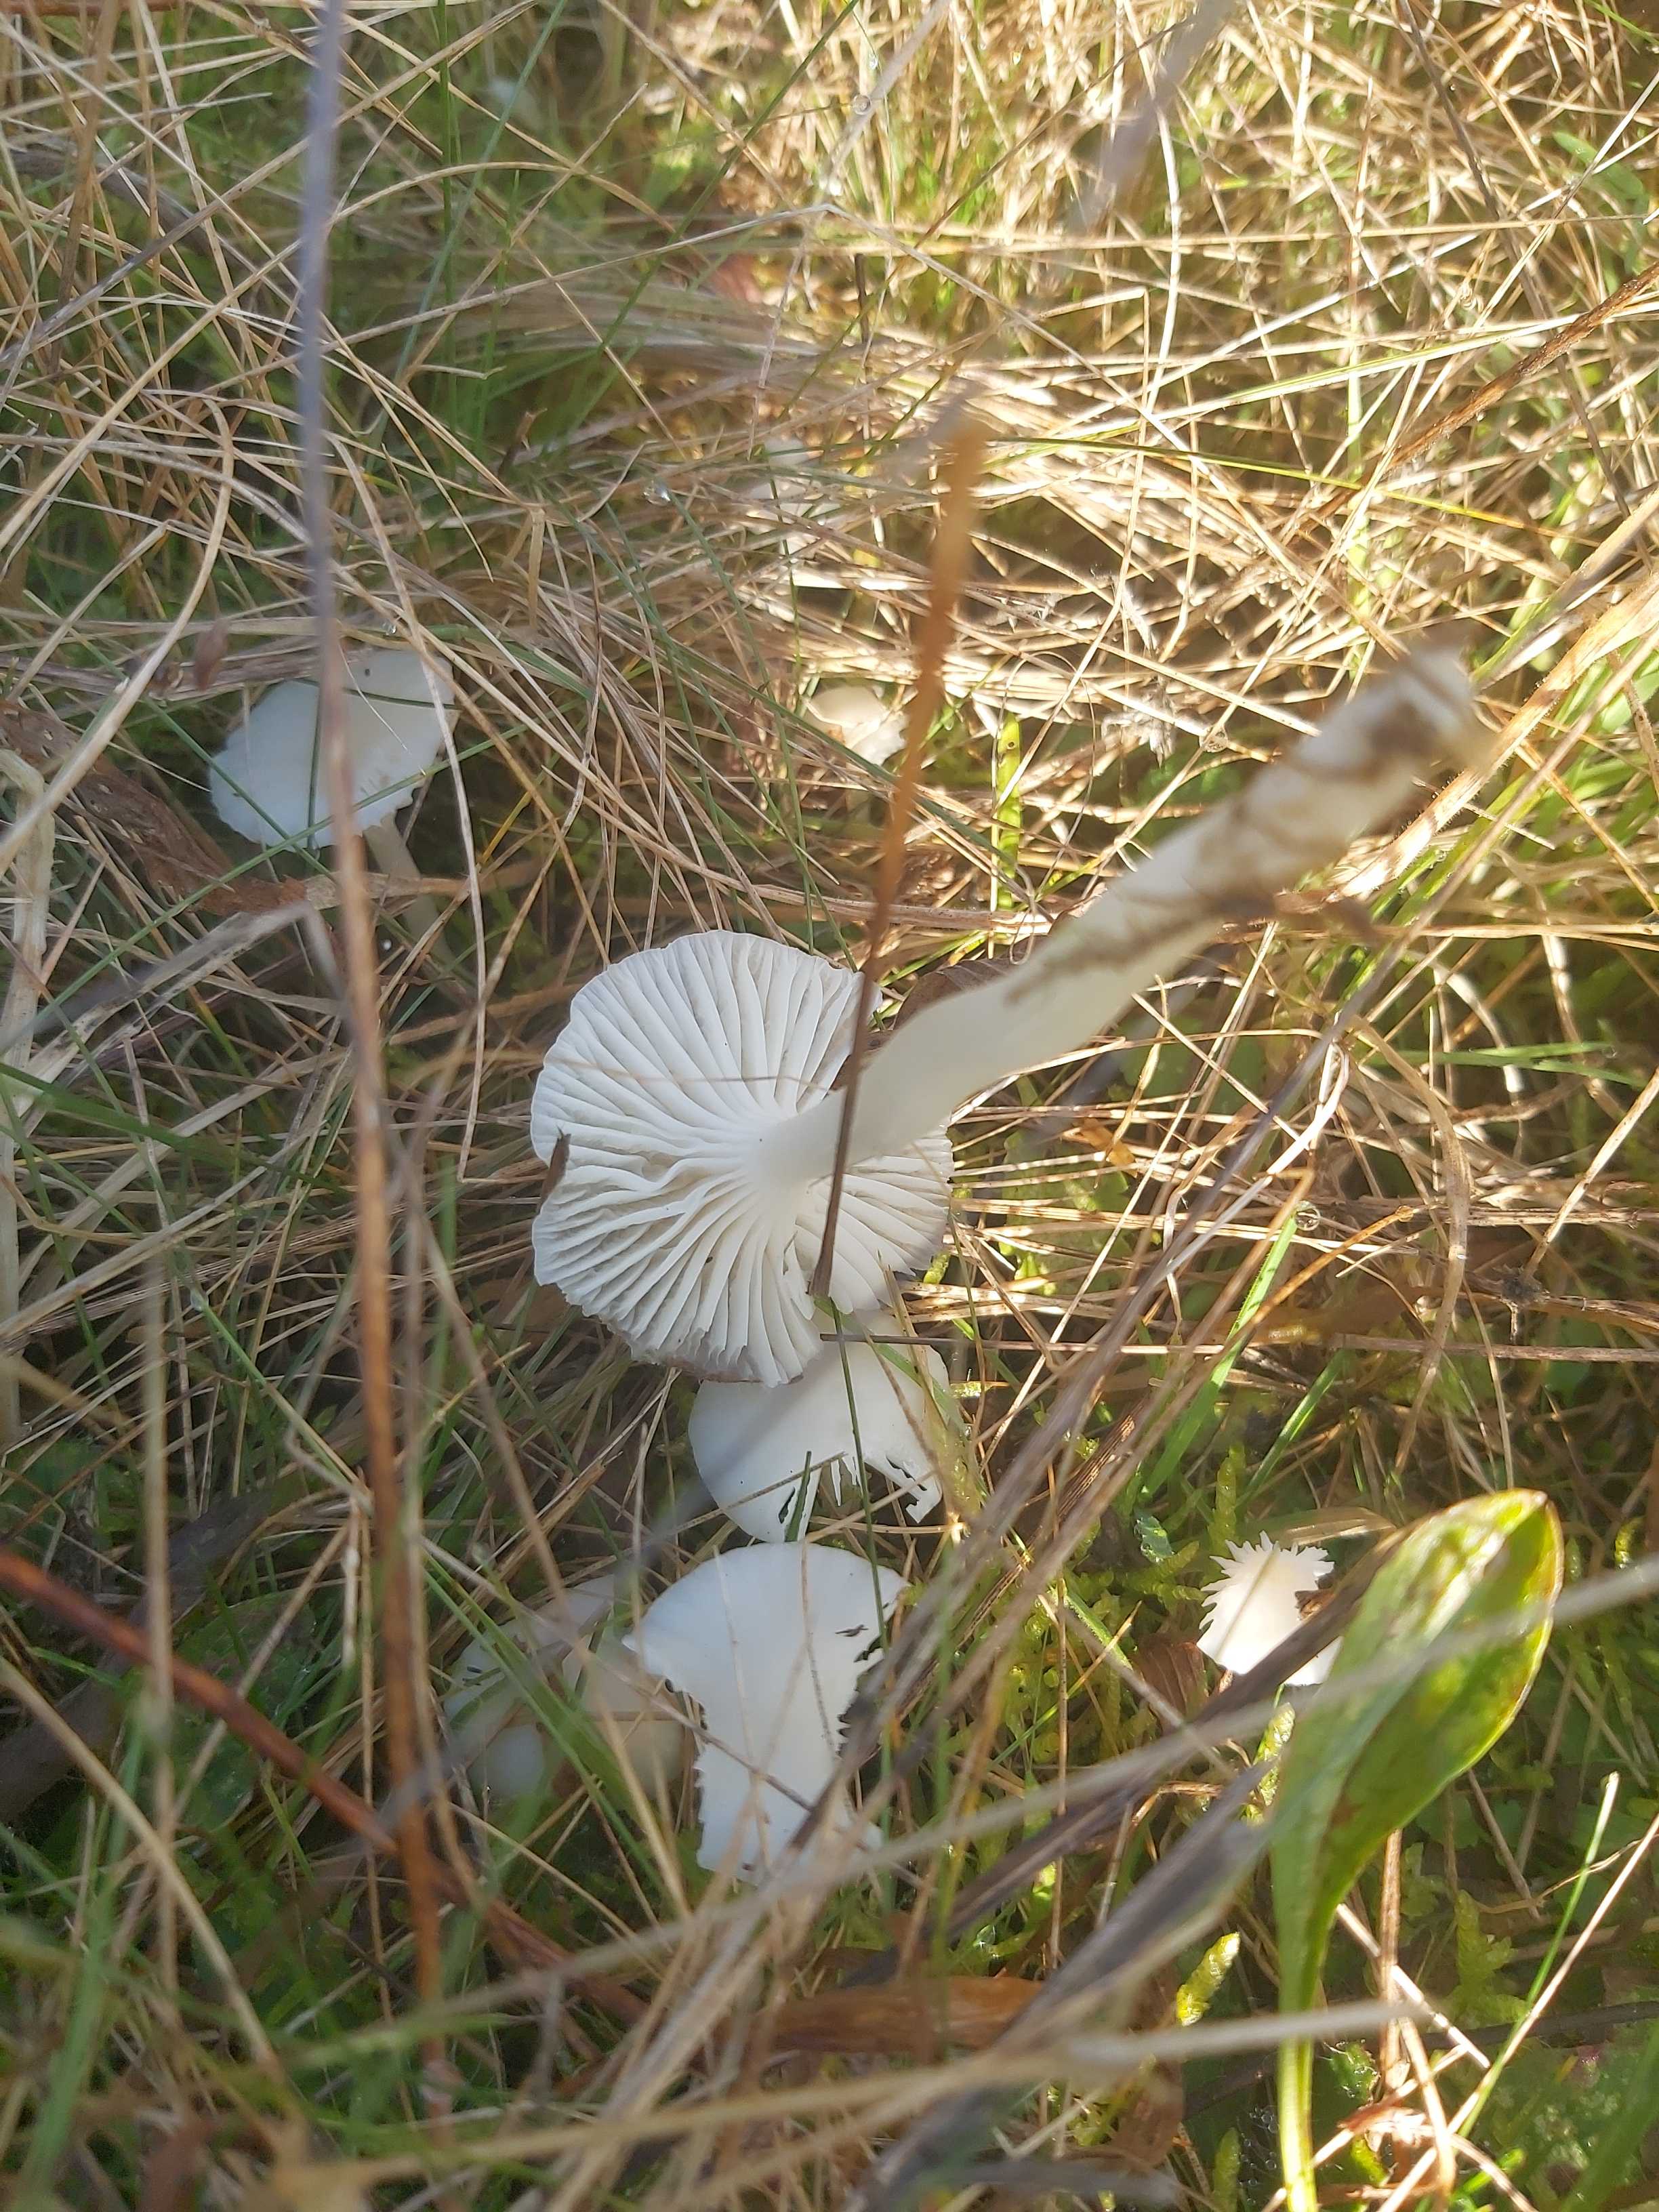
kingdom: Fungi
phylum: Basidiomycota
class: Agaricomycetes
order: Agaricales
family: Hygrophoraceae
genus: Cuphophyllus
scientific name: Cuphophyllus virgineus
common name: snehvid vokshat
